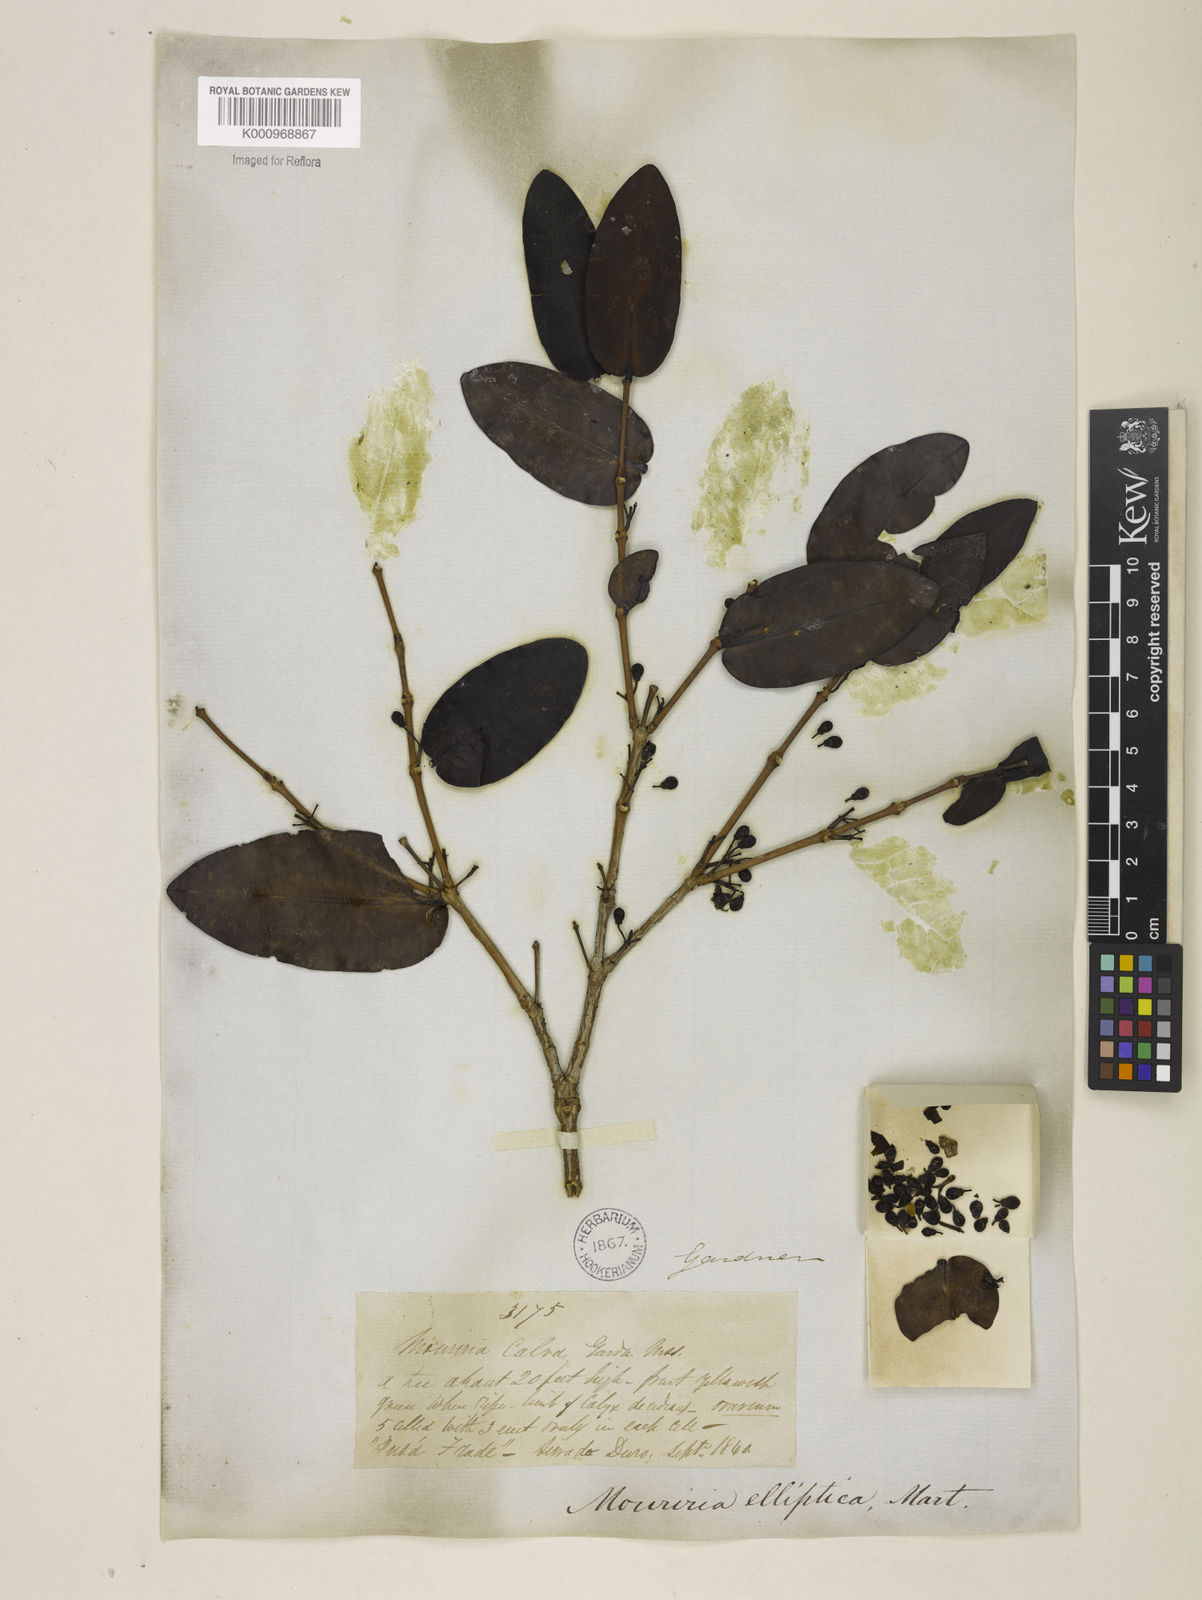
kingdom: Plantae
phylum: Tracheophyta
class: Magnoliopsida
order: Myrtales
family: Melastomataceae
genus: Mouriri
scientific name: Mouriri elliptica
